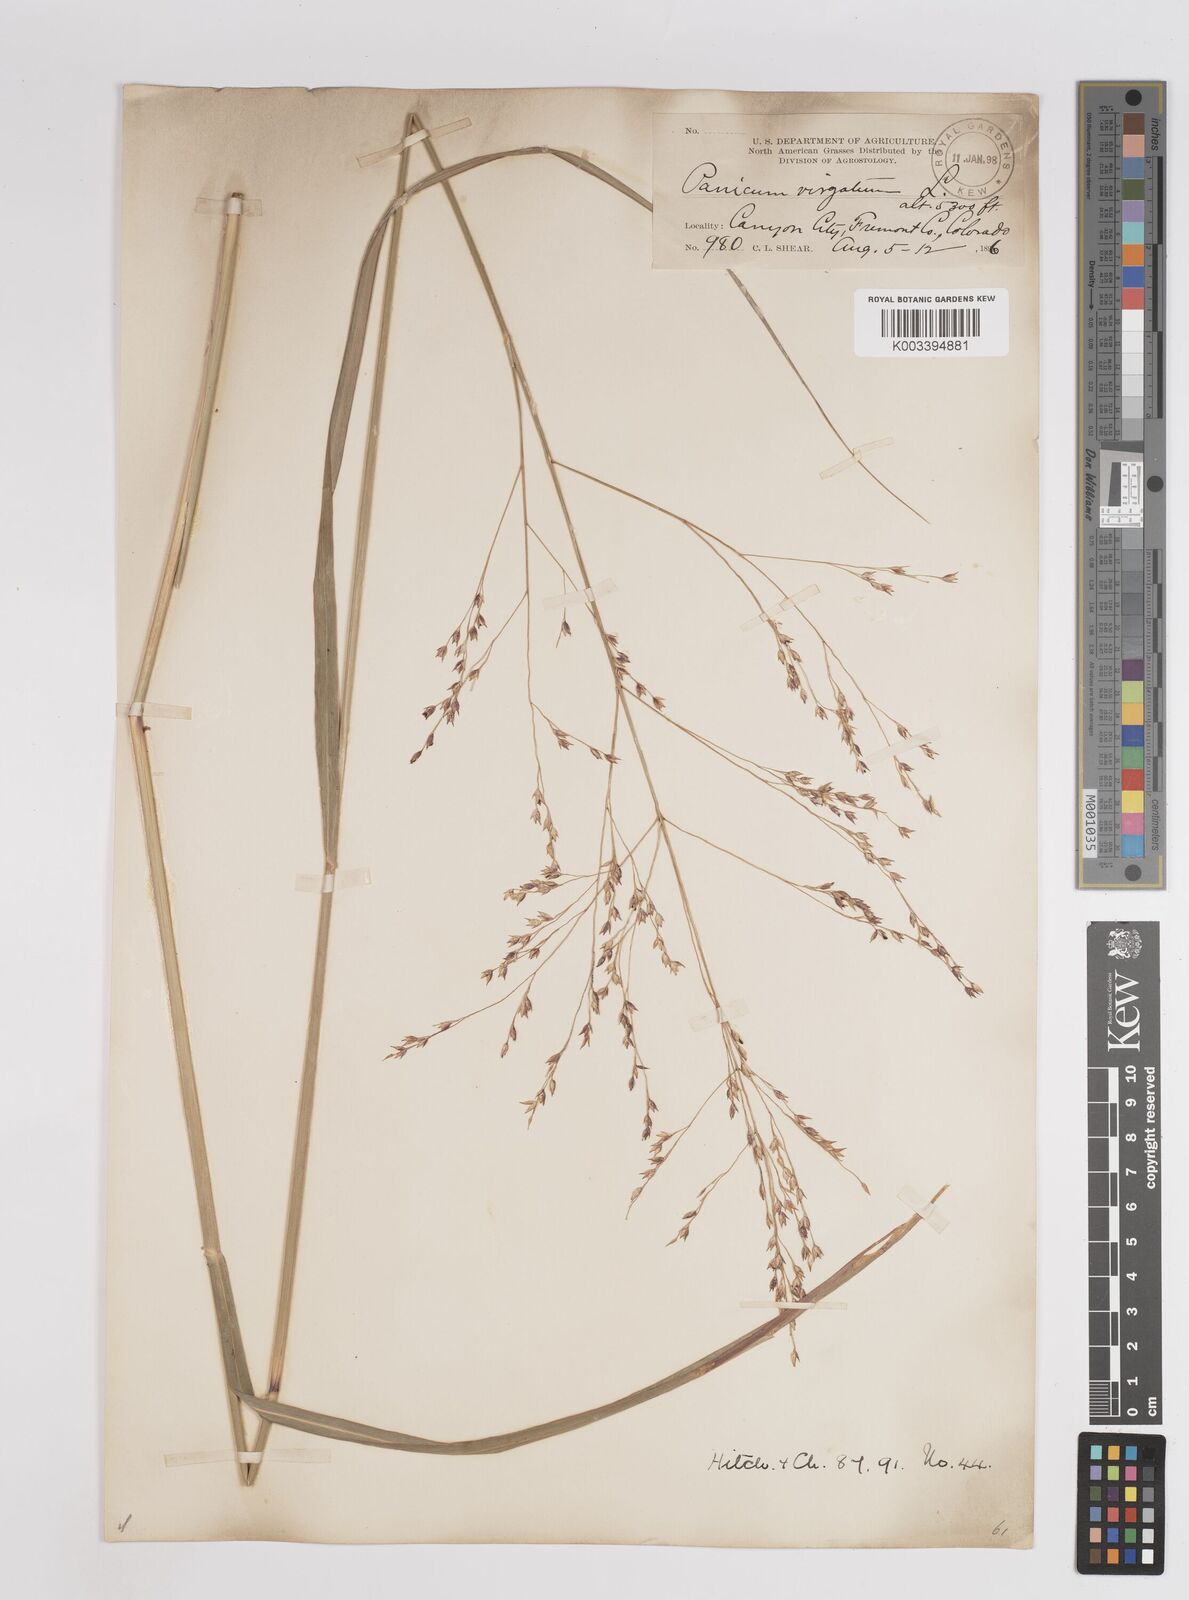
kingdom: Plantae
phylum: Tracheophyta
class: Liliopsida
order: Poales
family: Poaceae
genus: Panicum
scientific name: Panicum virgatum
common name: Switchgrass
